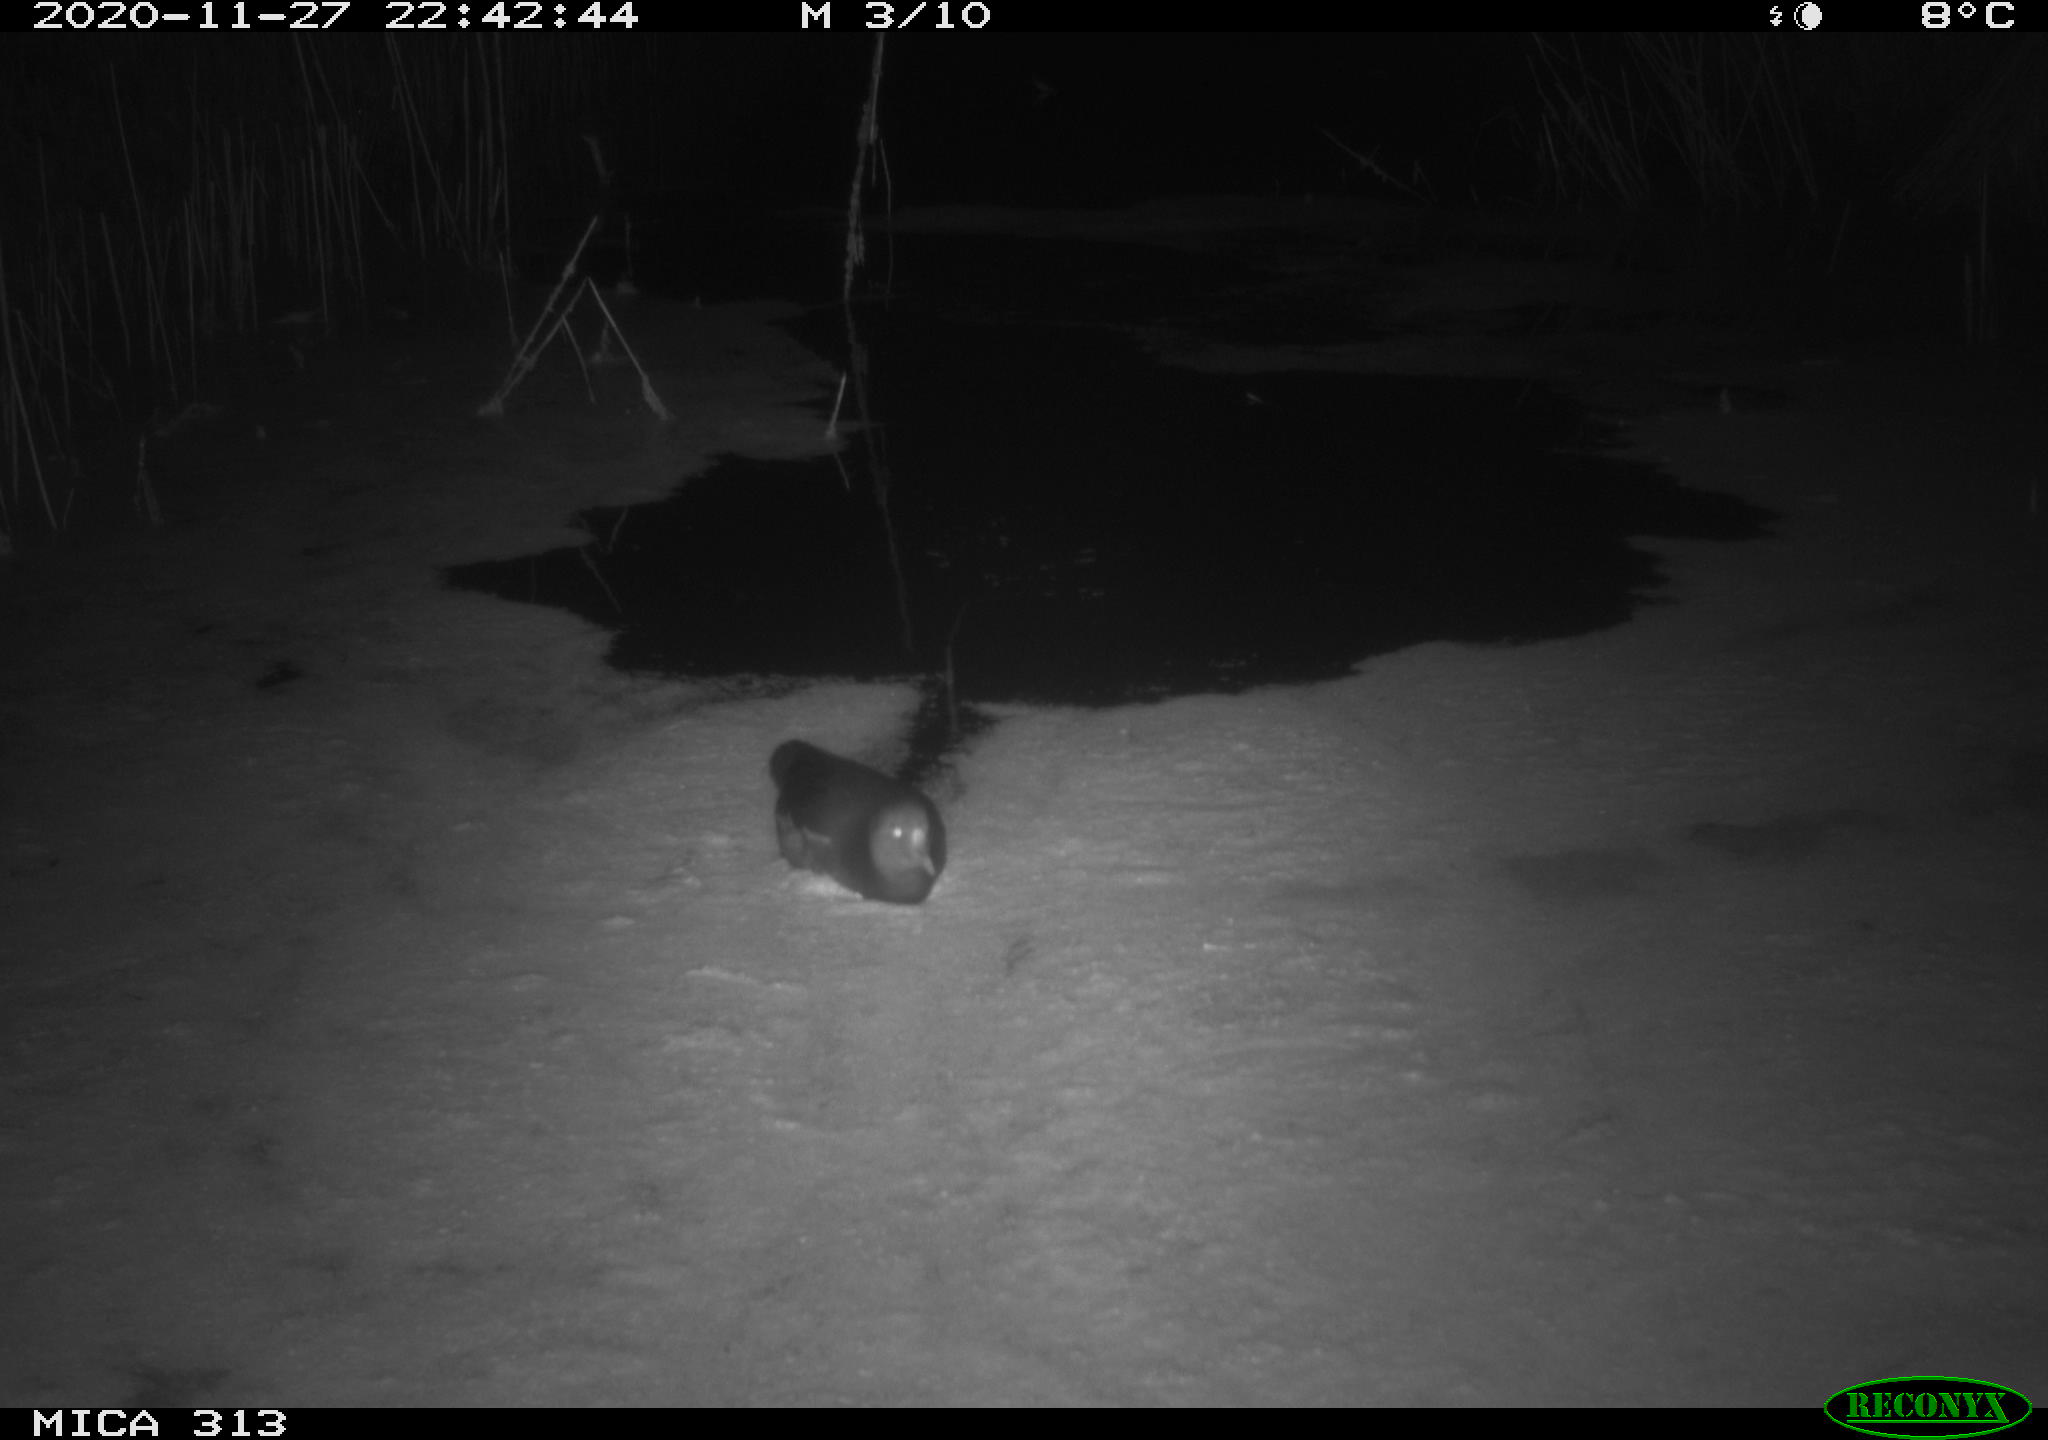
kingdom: Animalia
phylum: Chordata
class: Aves
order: Gruiformes
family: Rallidae
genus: Gallinula
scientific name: Gallinula chloropus
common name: Common moorhen
